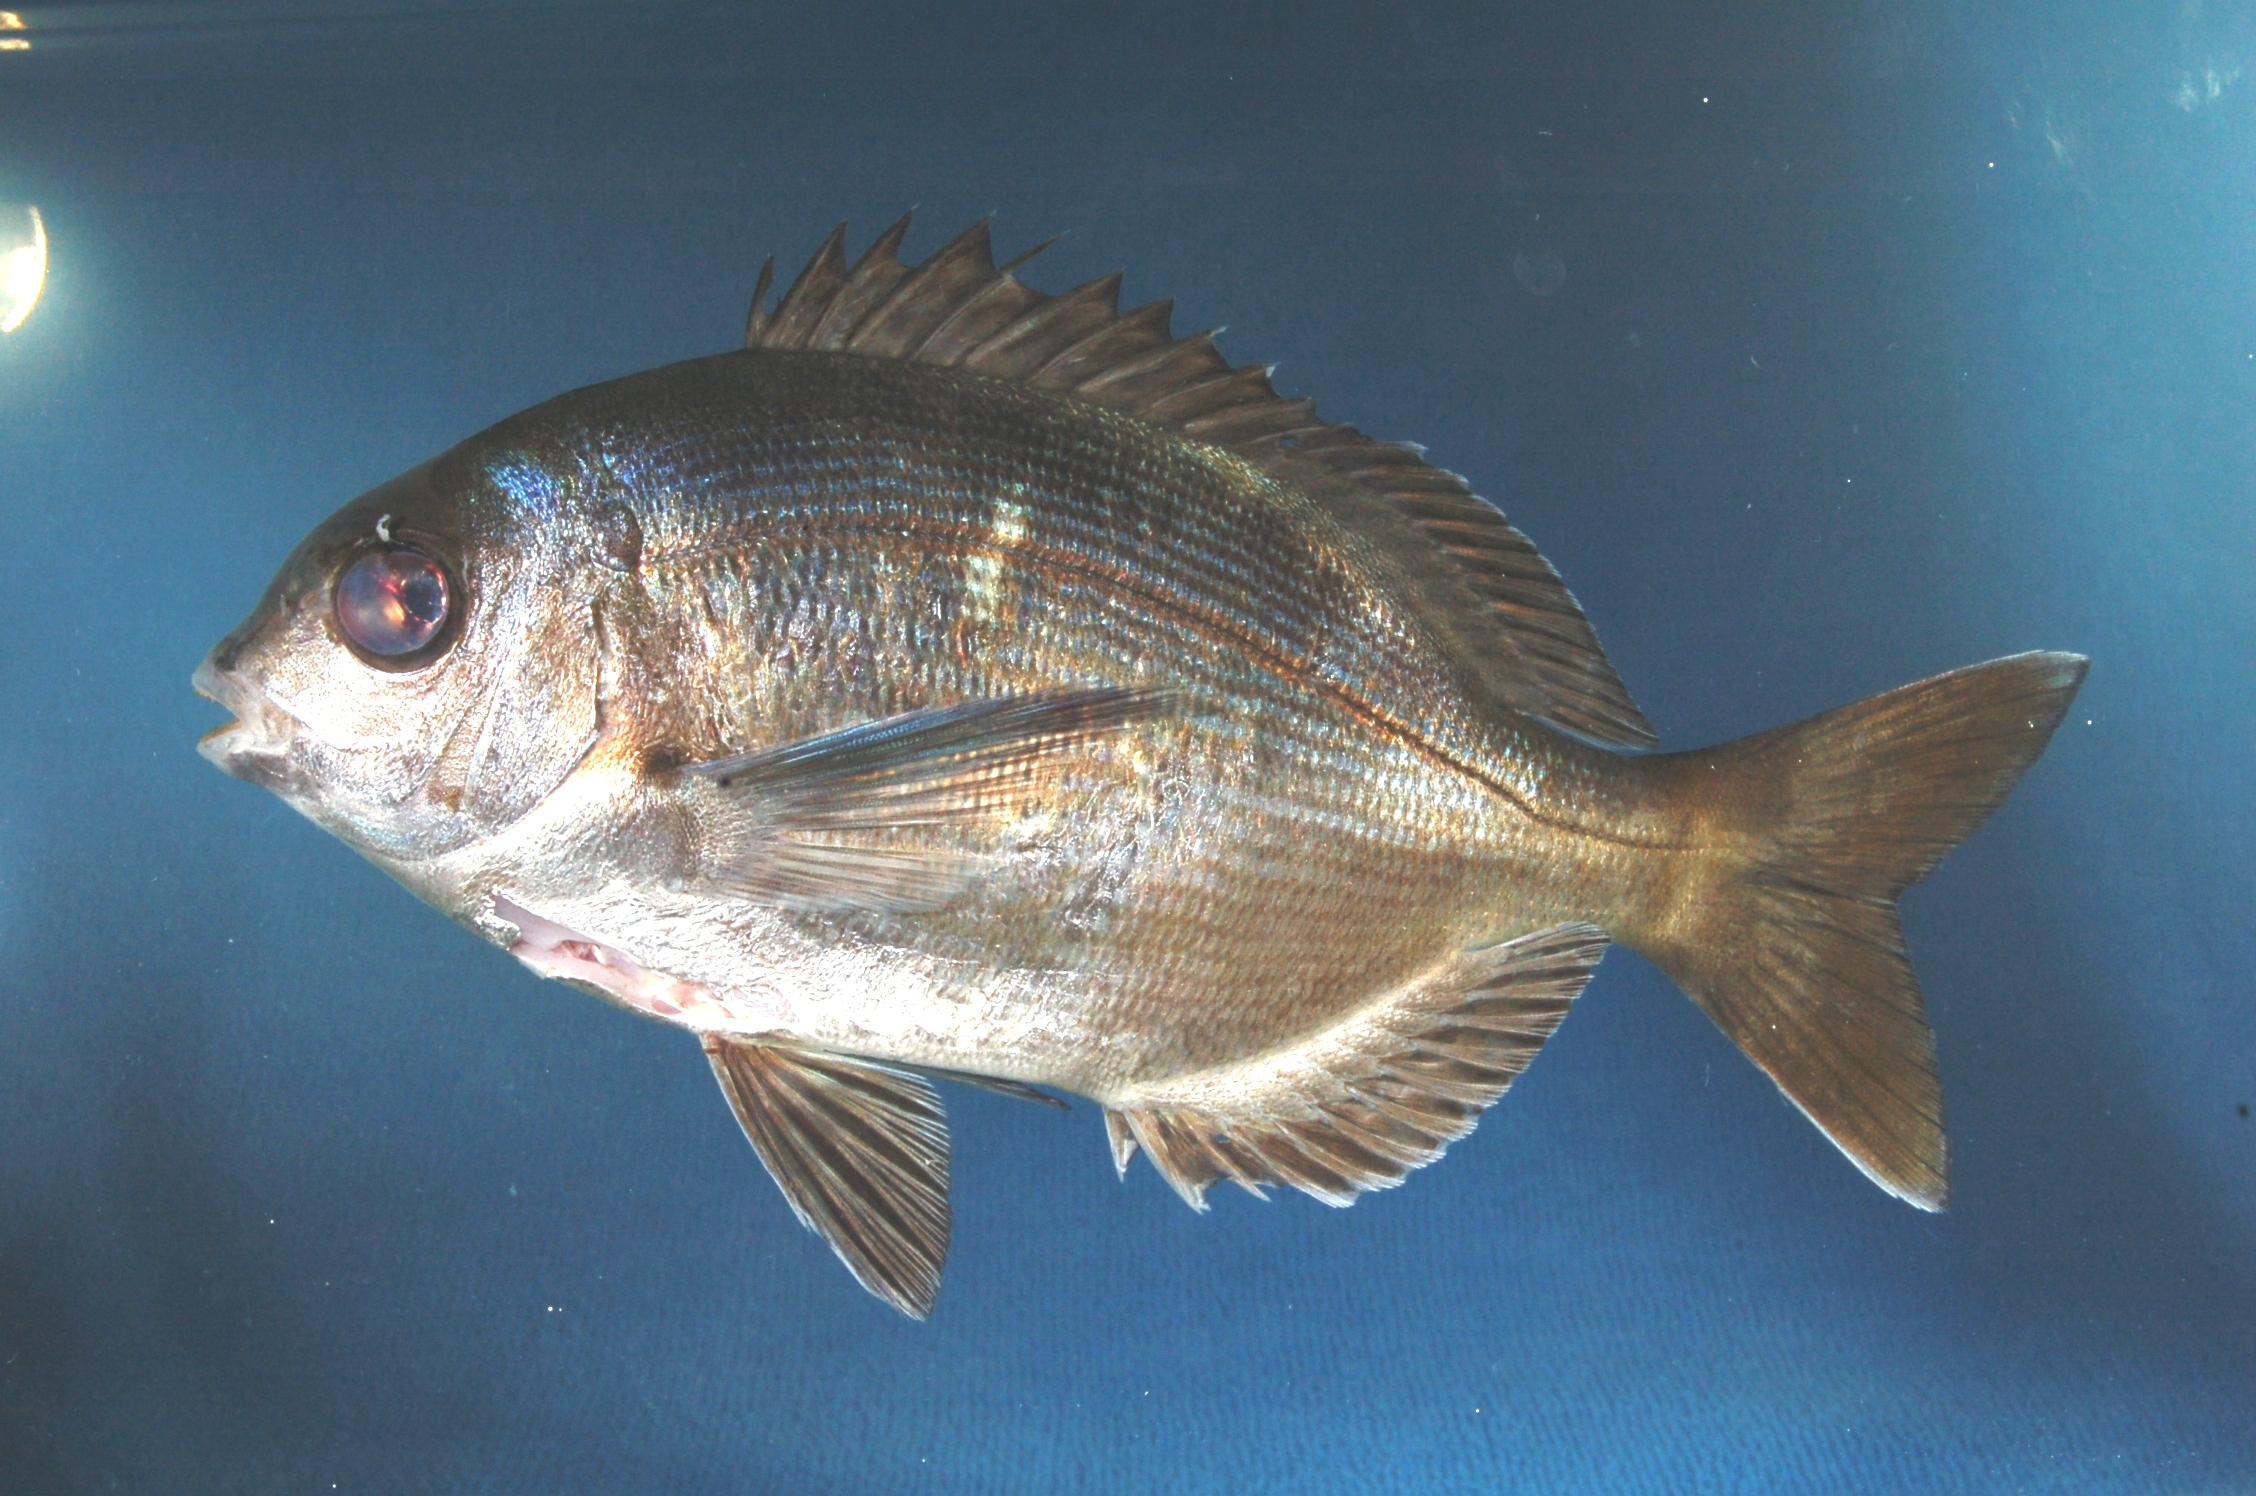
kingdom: Animalia
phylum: Chordata
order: Perciformes
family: Sparidae
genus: Pachymetopon
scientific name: Pachymetopon grande
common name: Bronze bream
